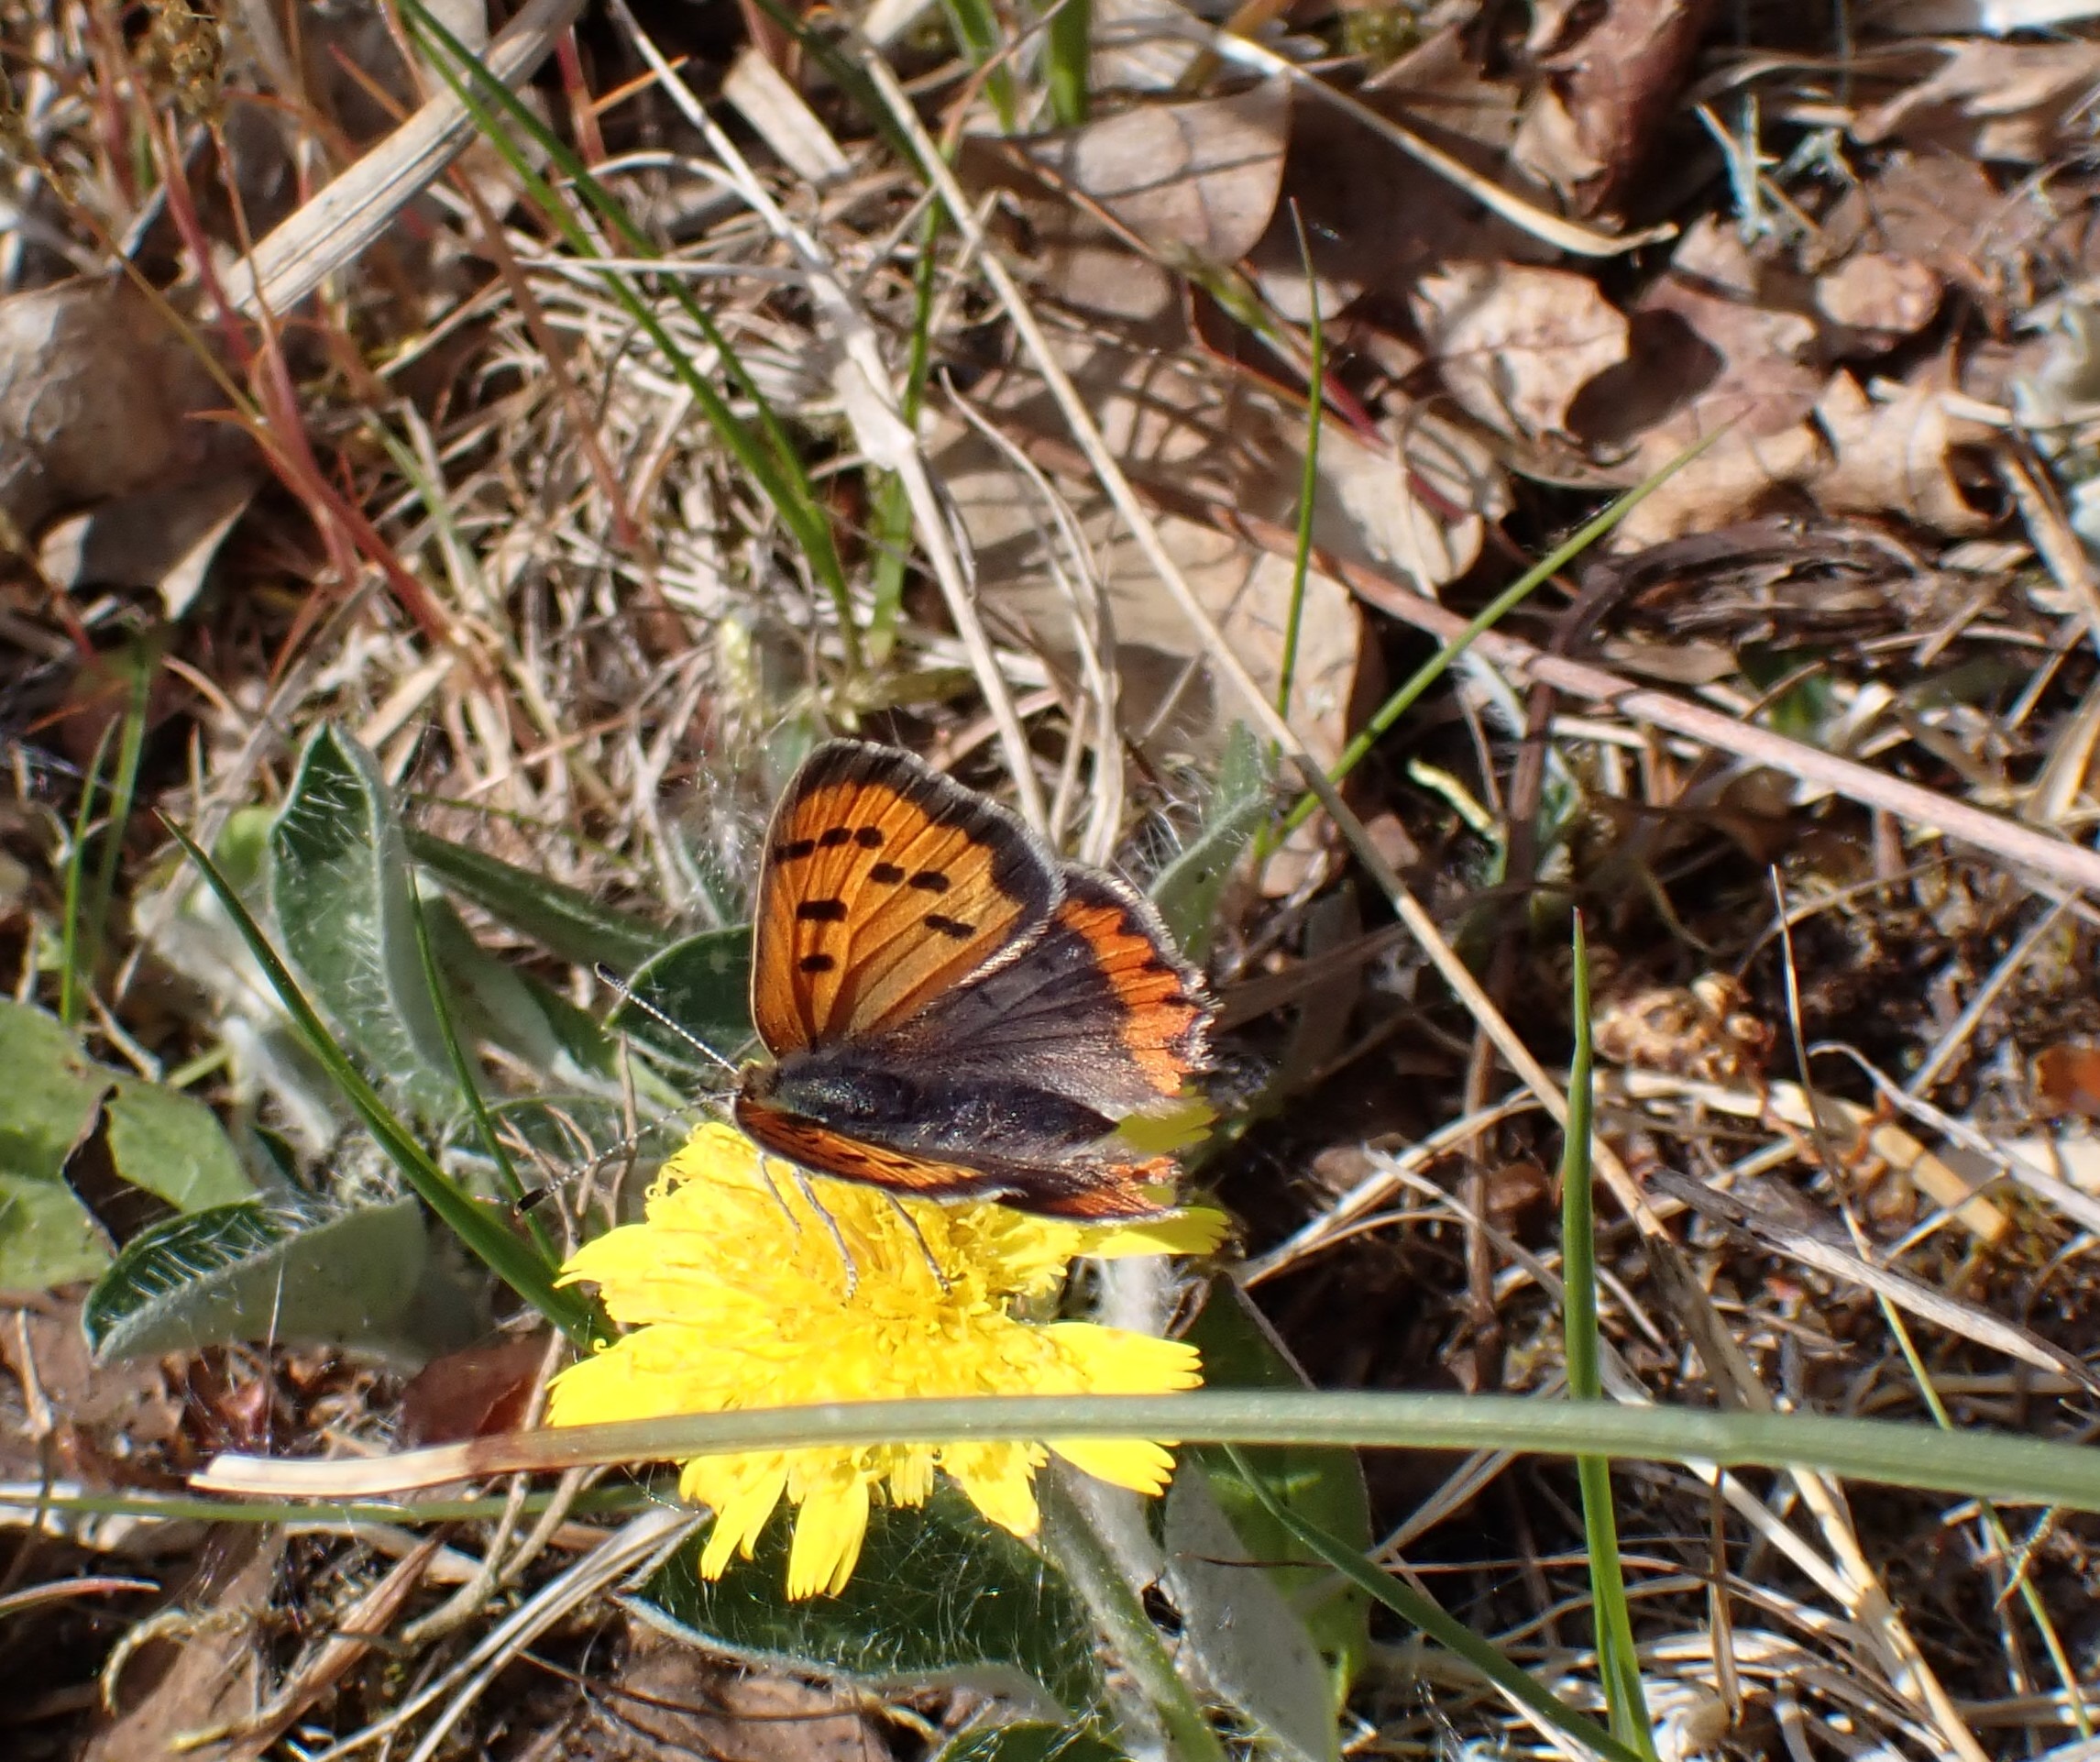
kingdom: Animalia
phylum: Arthropoda
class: Insecta
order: Lepidoptera
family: Lycaenidae
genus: Lycaena
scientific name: Lycaena phlaeas
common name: Lille ildfugl
